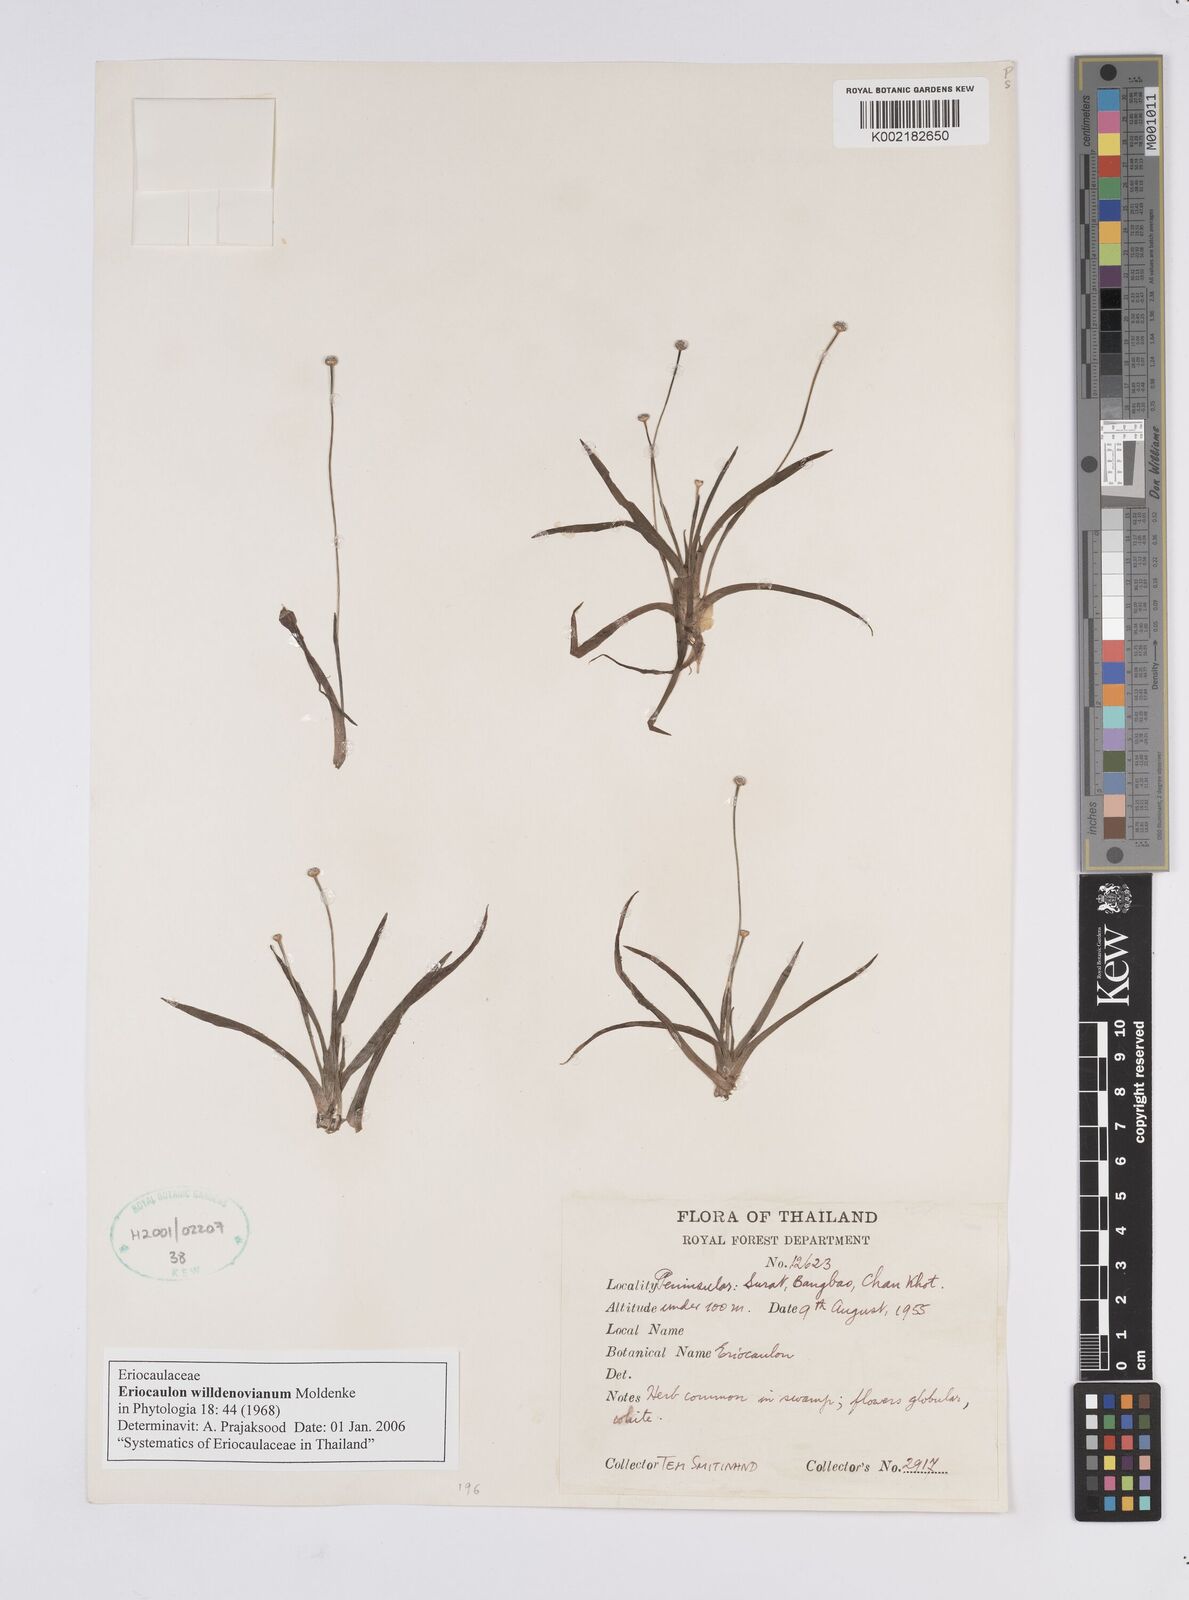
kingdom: Plantae
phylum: Tracheophyta
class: Liliopsida
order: Poales
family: Eriocaulaceae
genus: Eriocaulon
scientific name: Eriocaulon willdenovianum
